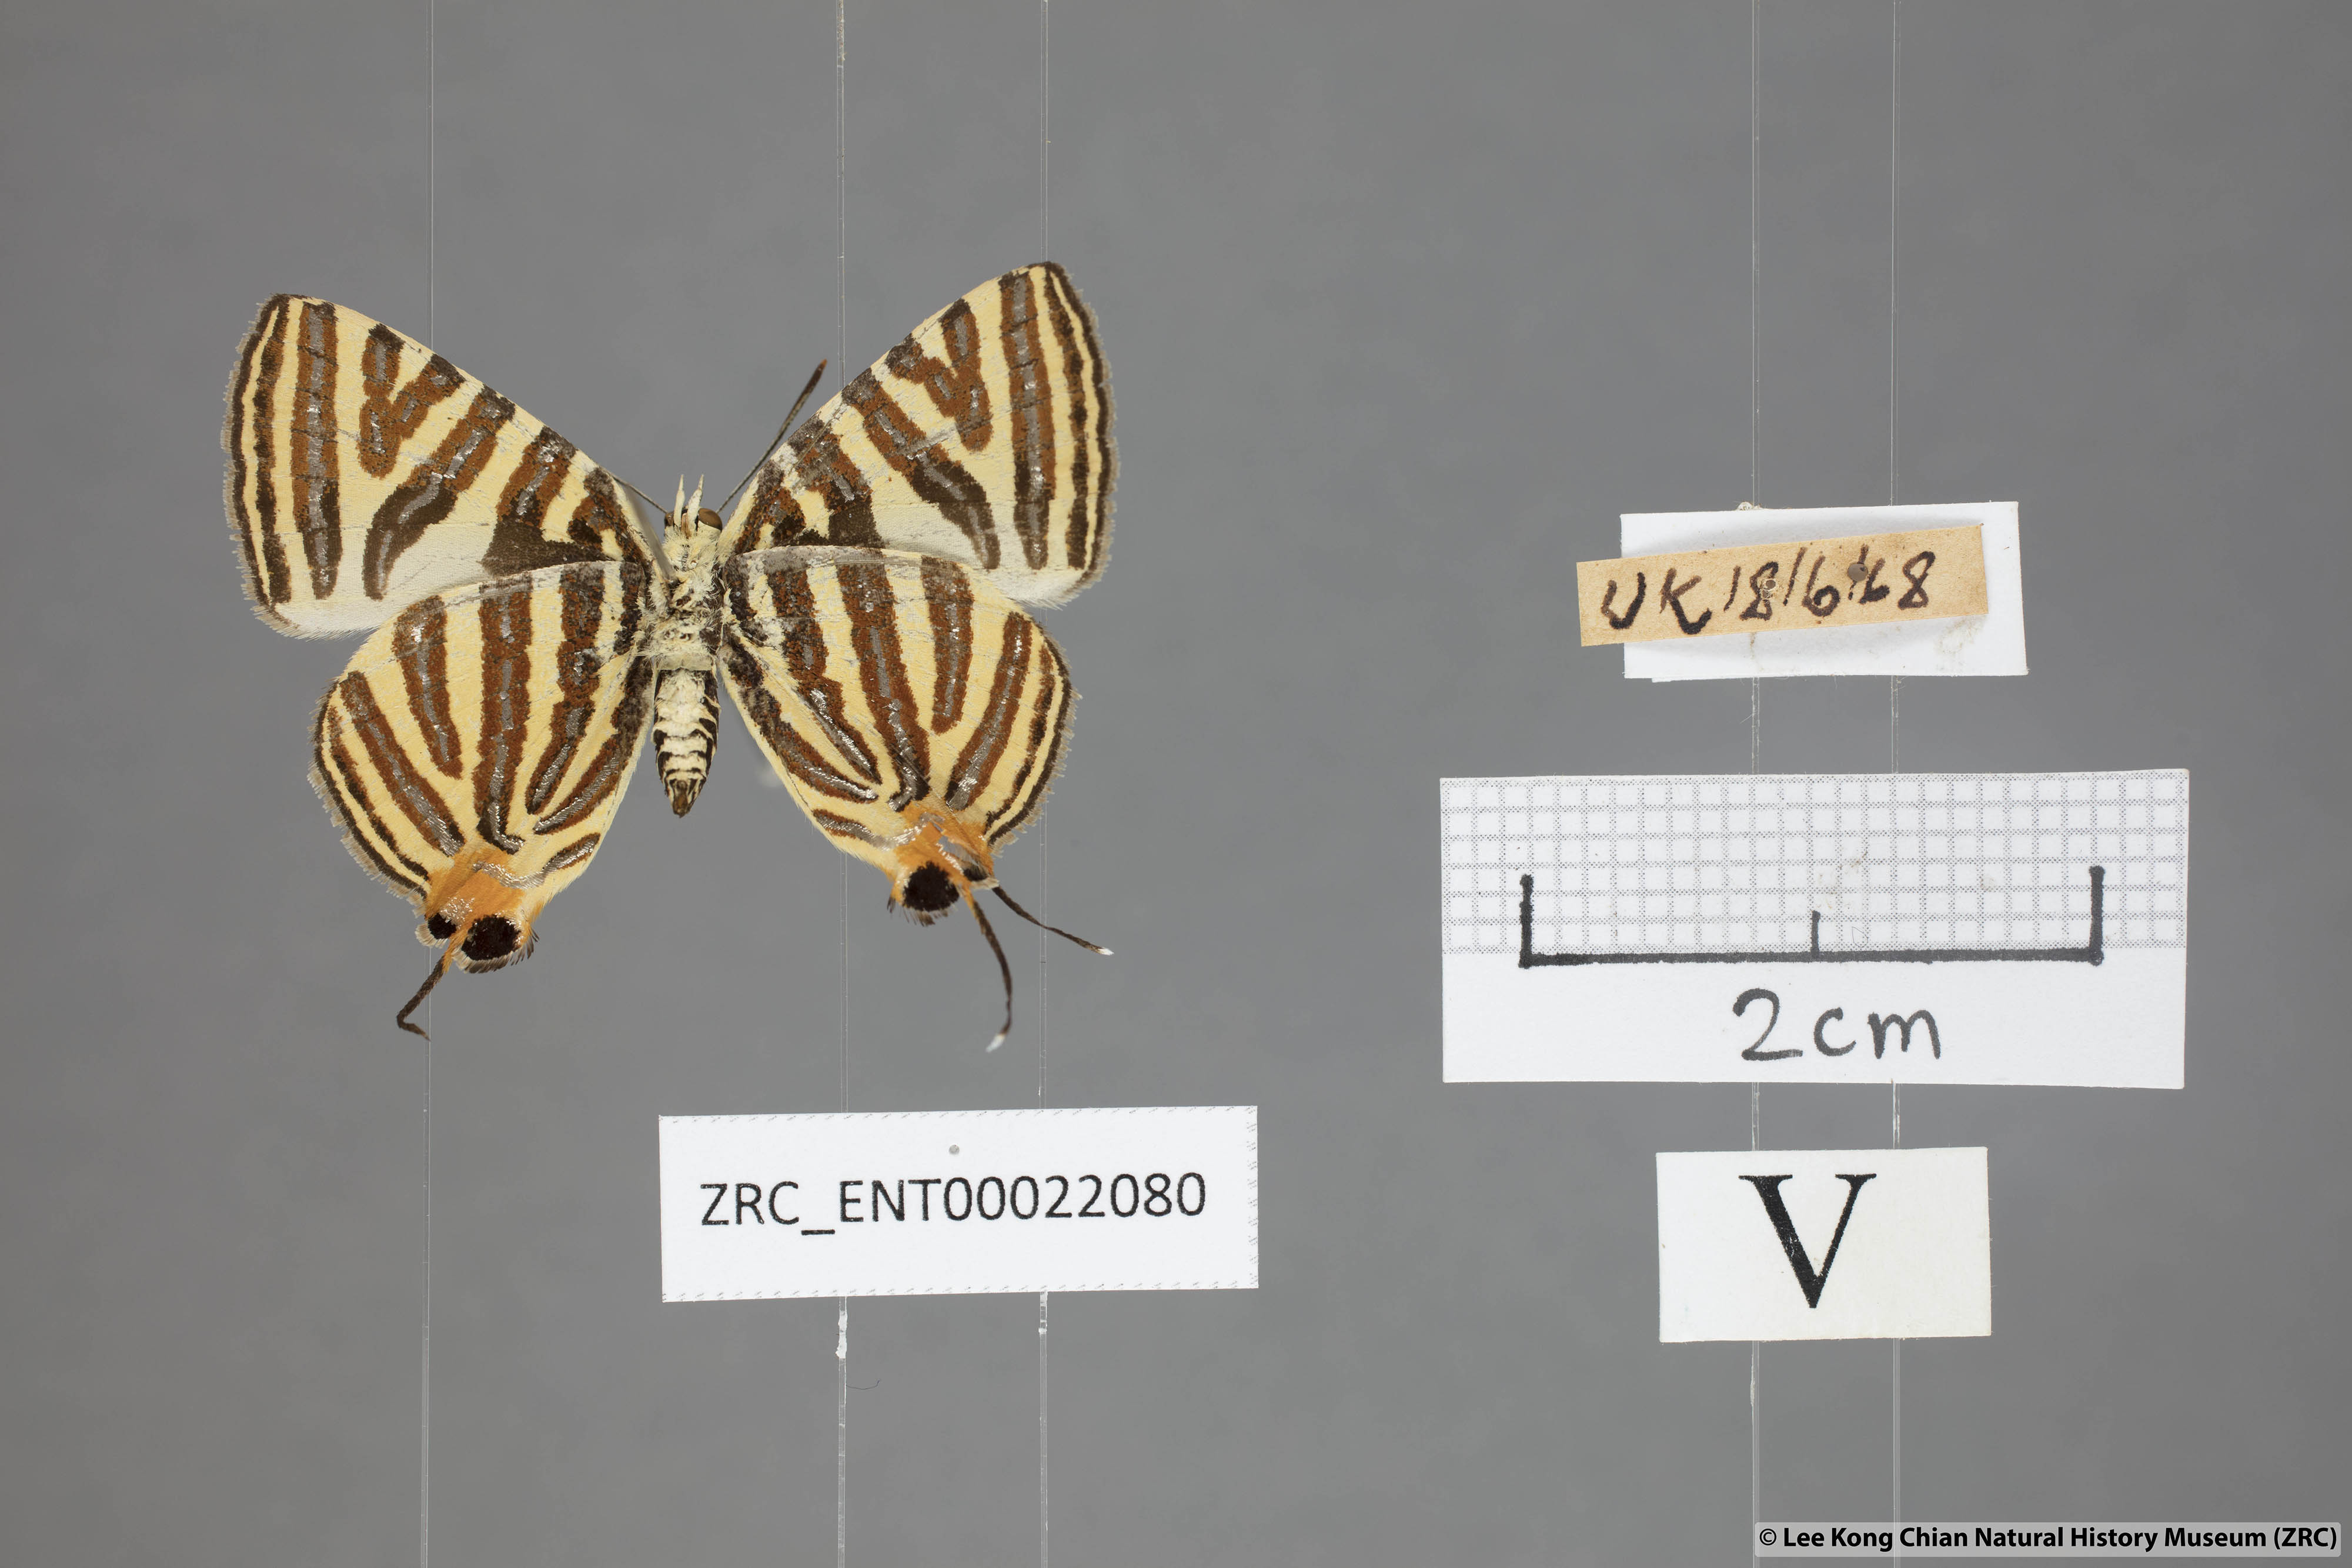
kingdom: Animalia
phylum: Arthropoda
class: Insecta
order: Lepidoptera
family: Lycaenidae
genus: Spindasis
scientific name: Spindasis lohita
